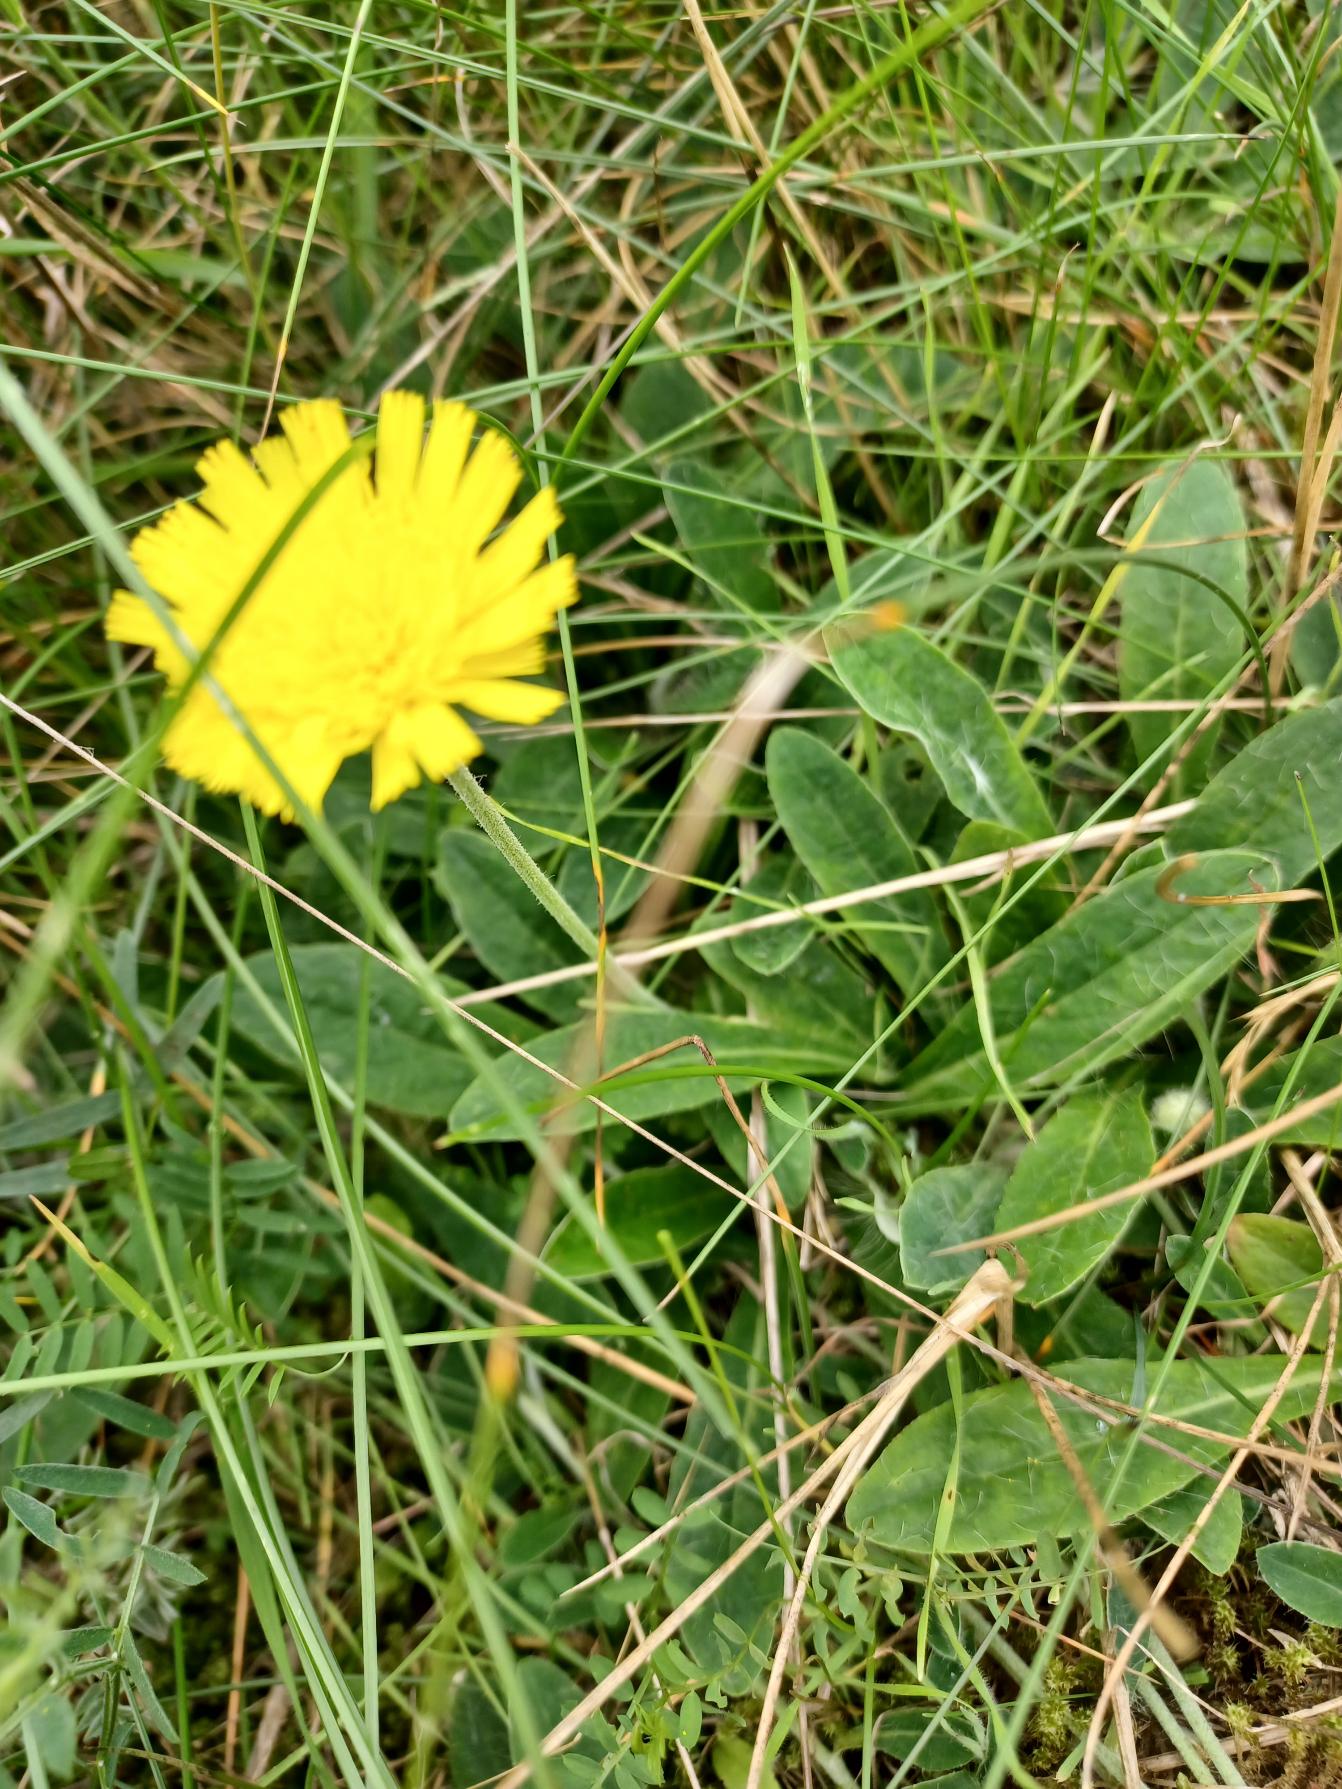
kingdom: Plantae
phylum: Tracheophyta
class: Magnoliopsida
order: Asterales
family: Asteraceae
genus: Pilosella
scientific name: Pilosella officinarum
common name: Håret høgeurt
